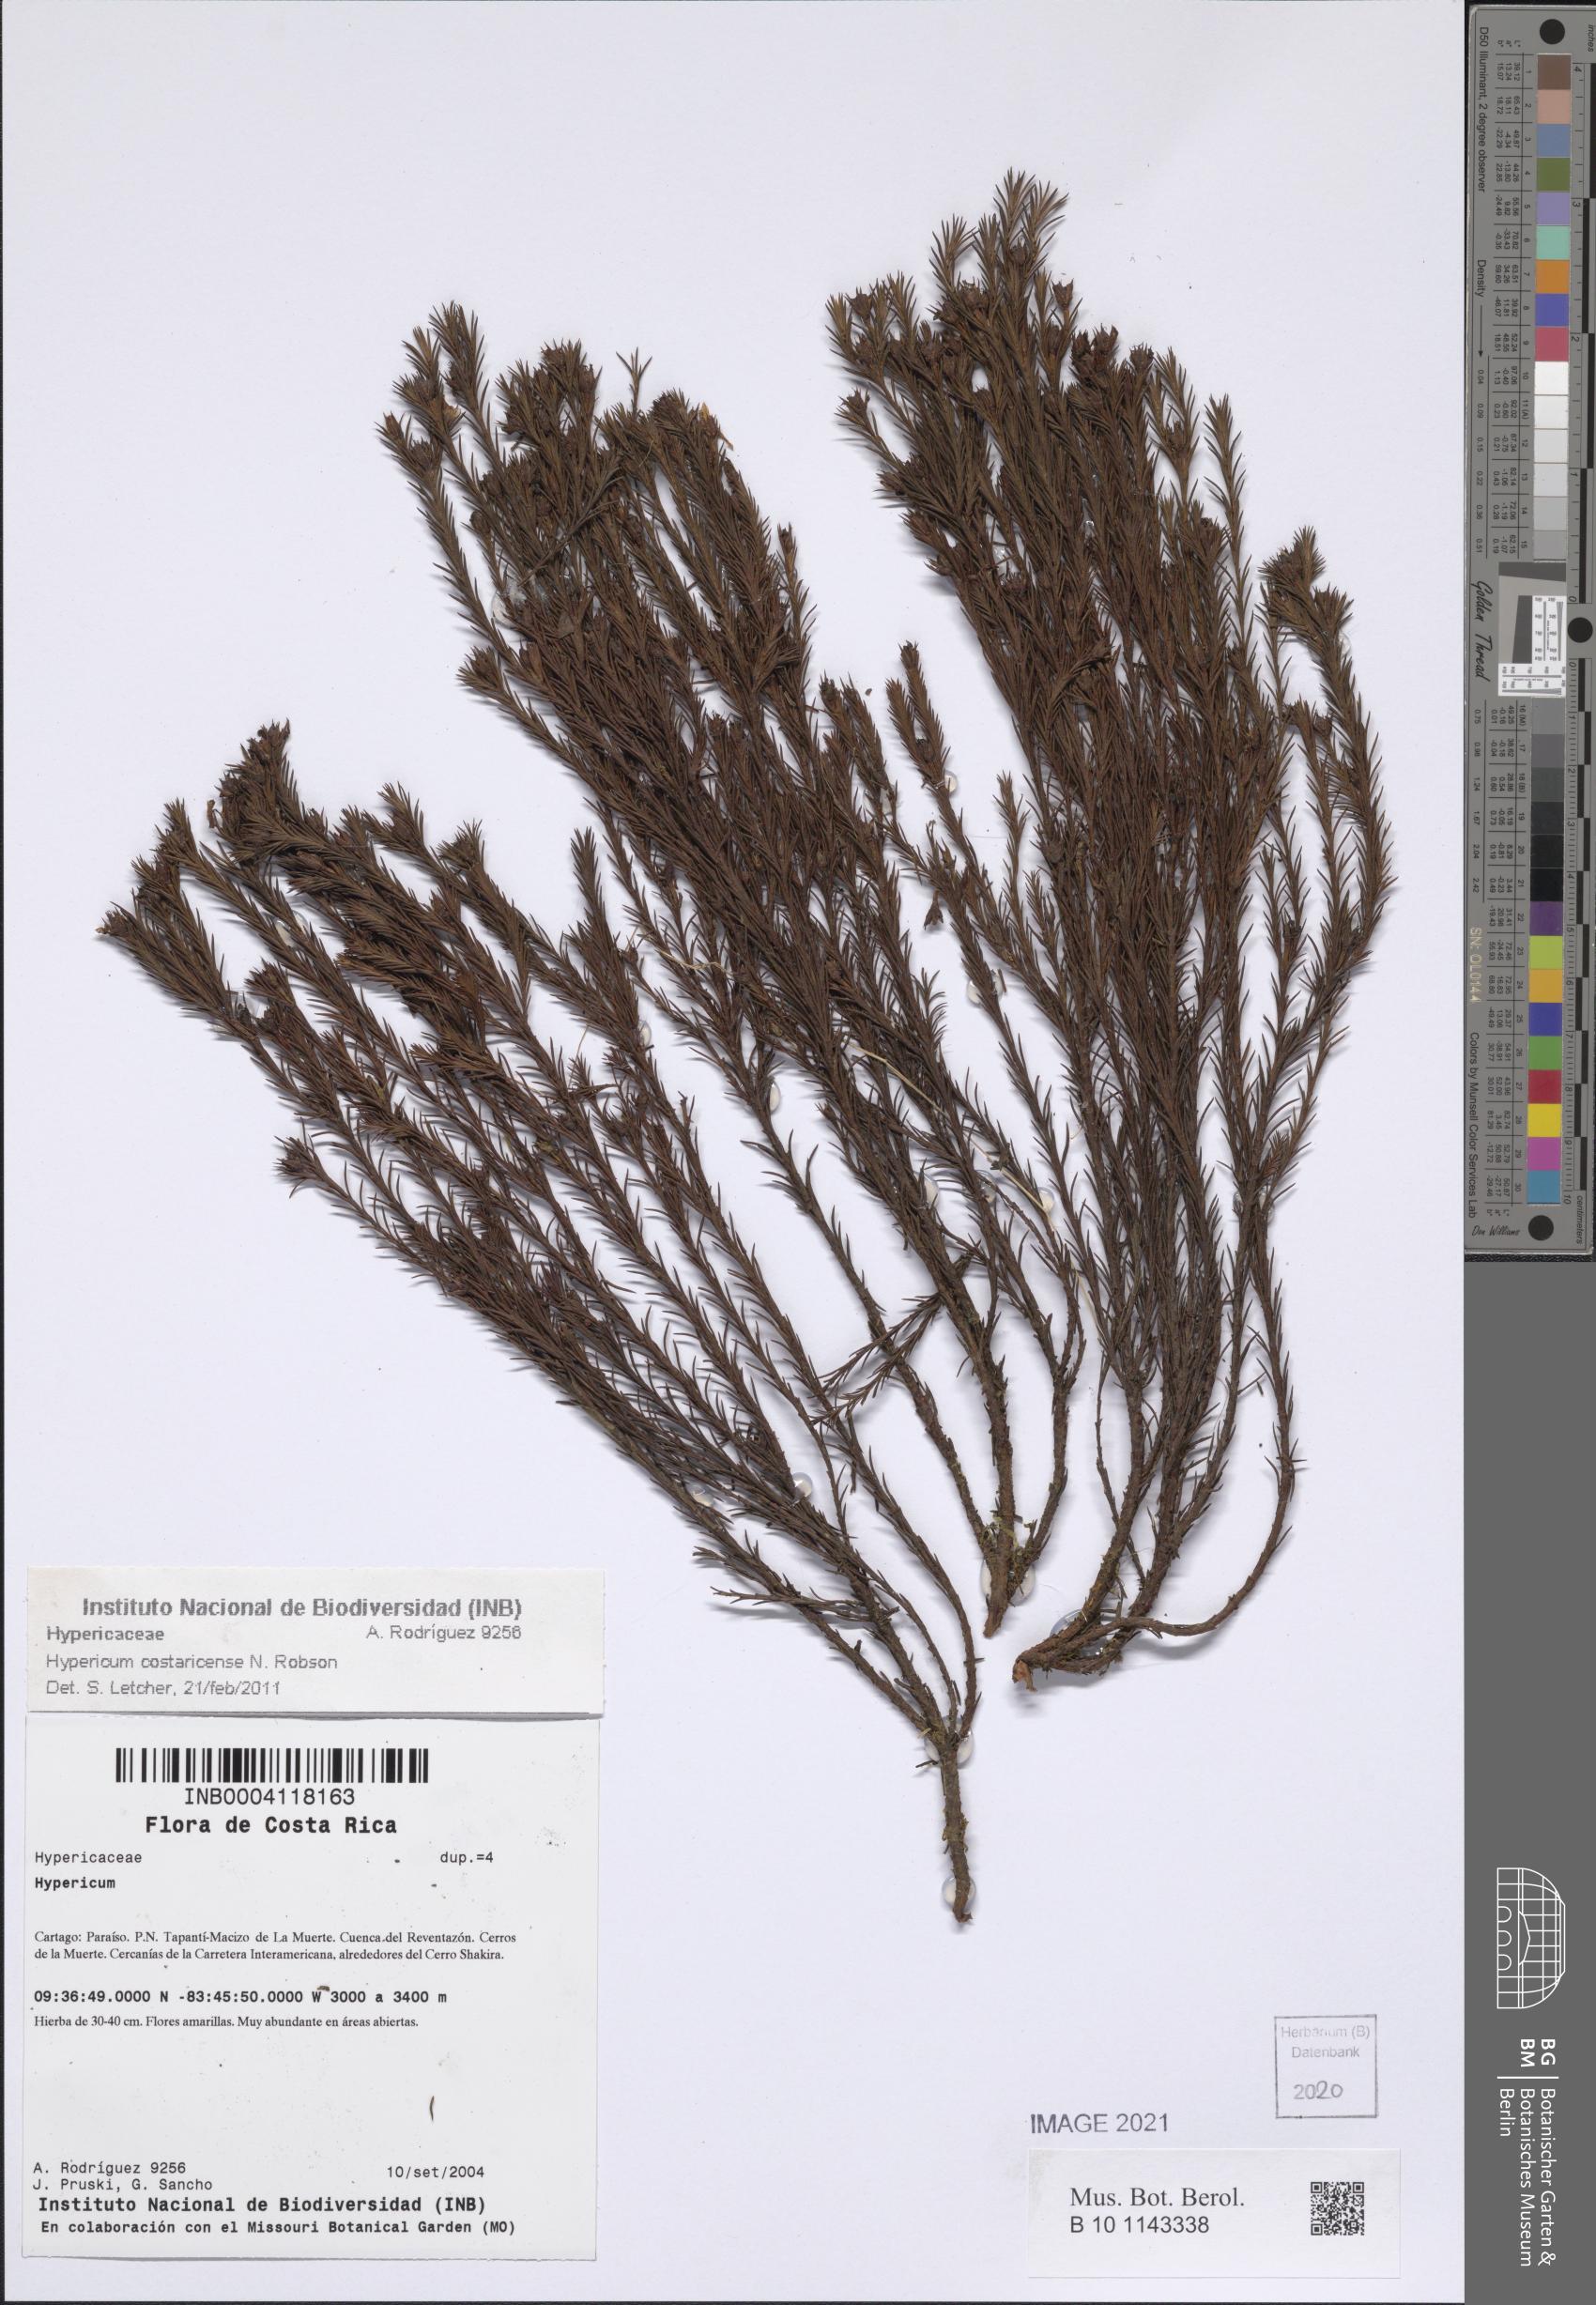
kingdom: Plantae
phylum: Tracheophyta
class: Magnoliopsida
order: Malpighiales
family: Hypericaceae
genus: Hypericum
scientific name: Hypericum costaricense
